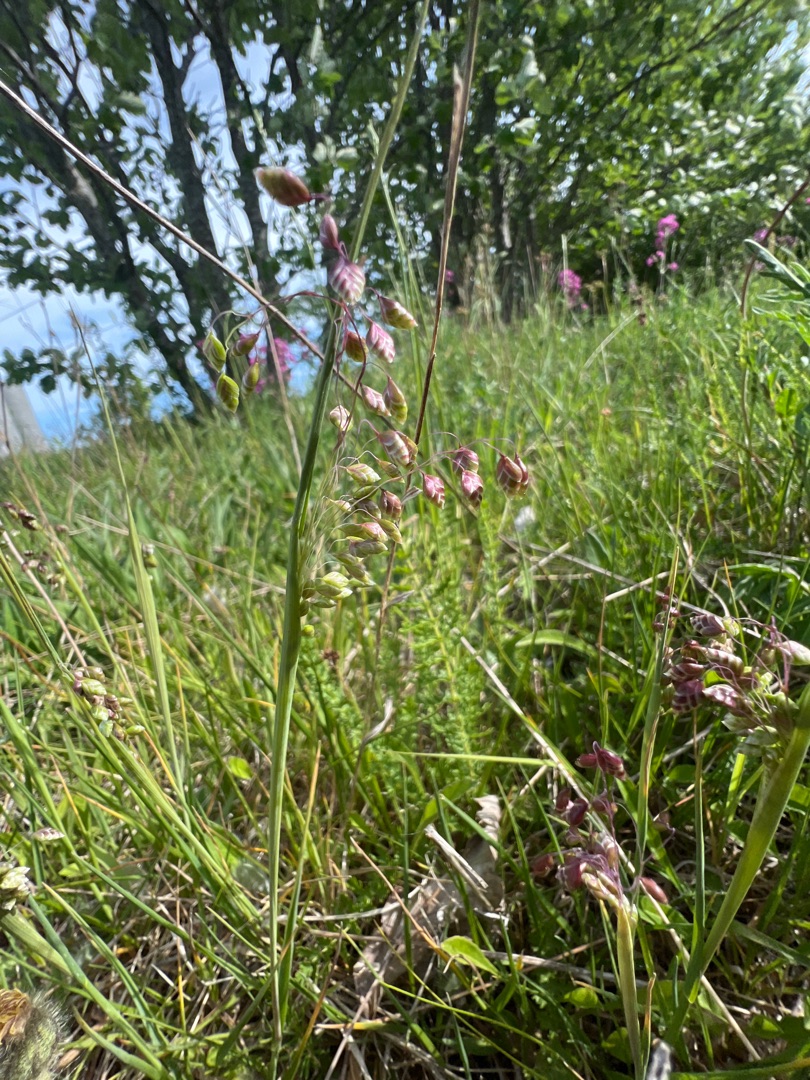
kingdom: Plantae
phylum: Tracheophyta
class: Liliopsida
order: Poales
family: Poaceae
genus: Briza
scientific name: Briza media
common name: Hjertegræs
